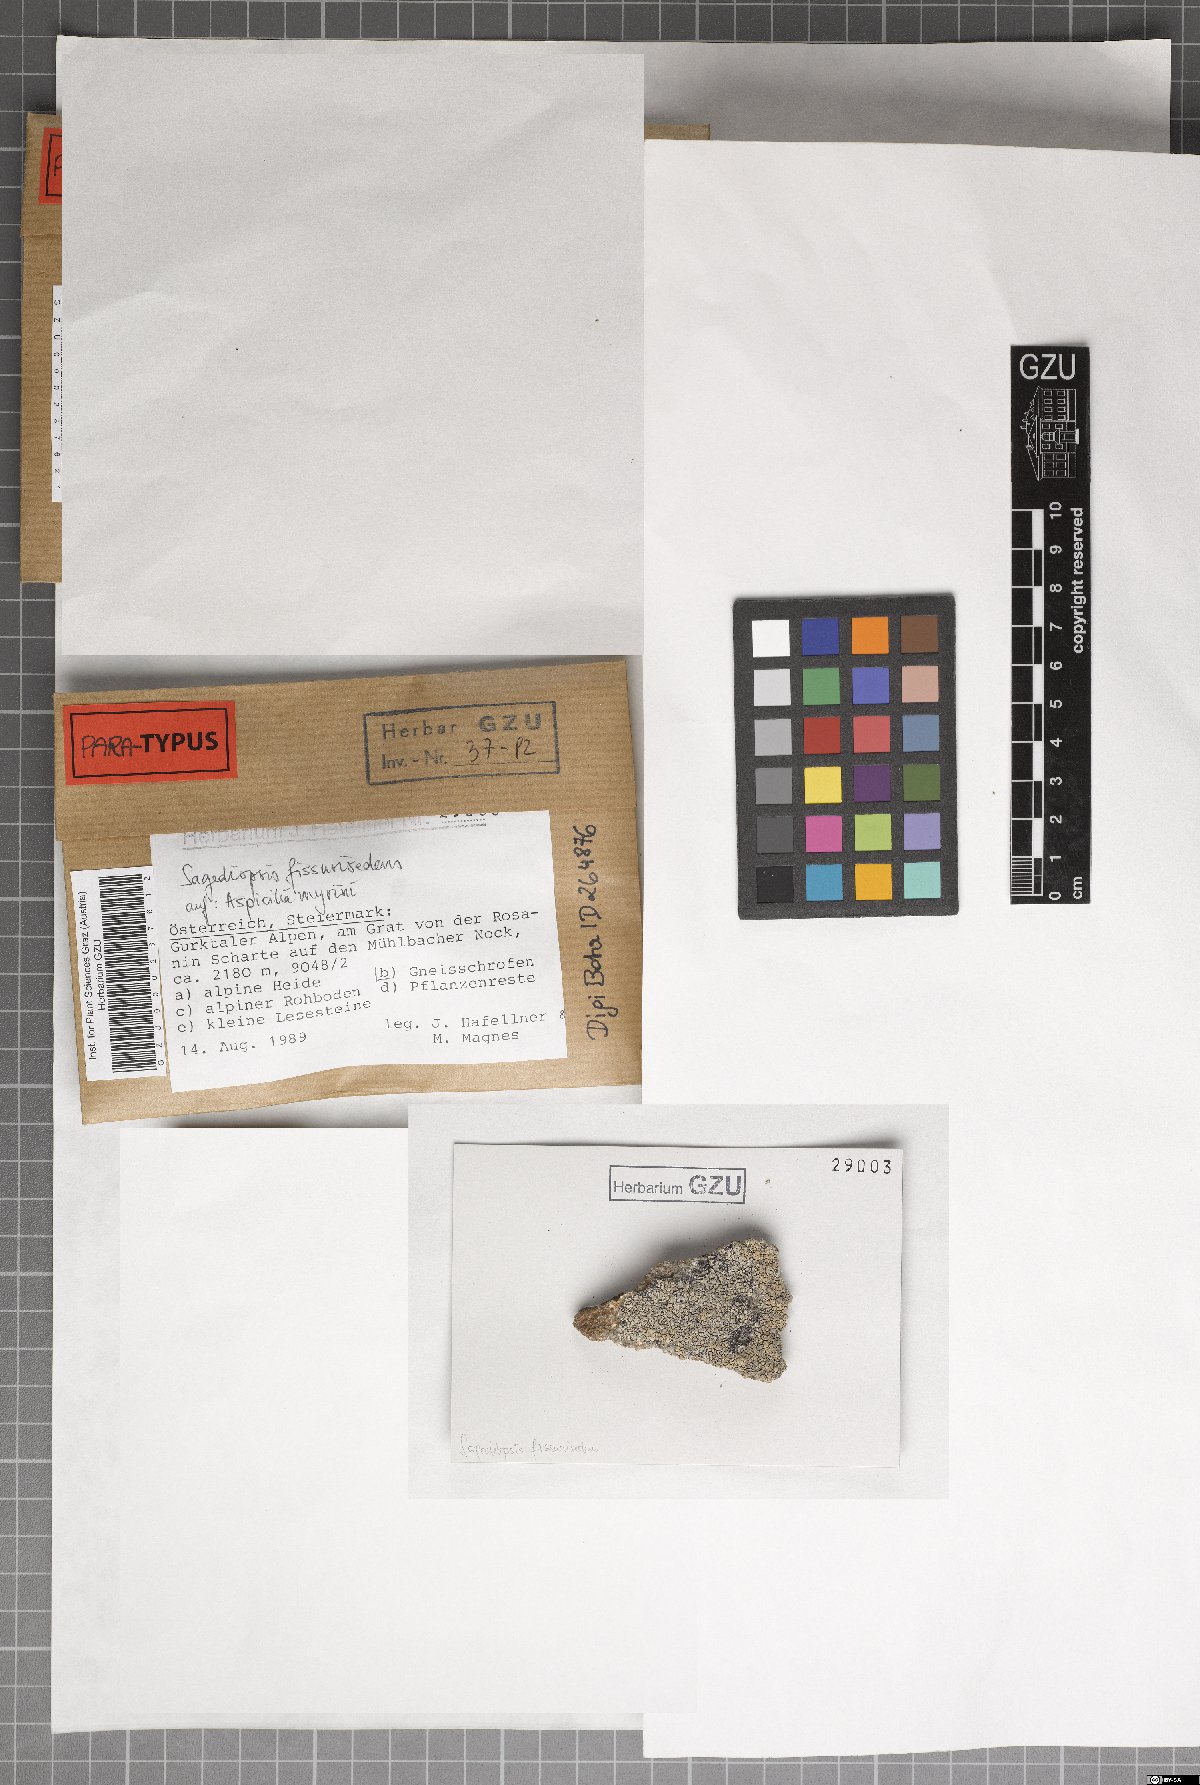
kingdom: Fungi
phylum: Ascomycota
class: Eurotiomycetes
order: Verrucariales
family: Adelococcaceae
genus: Sagediopsis
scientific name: Sagediopsis fissurisedens
